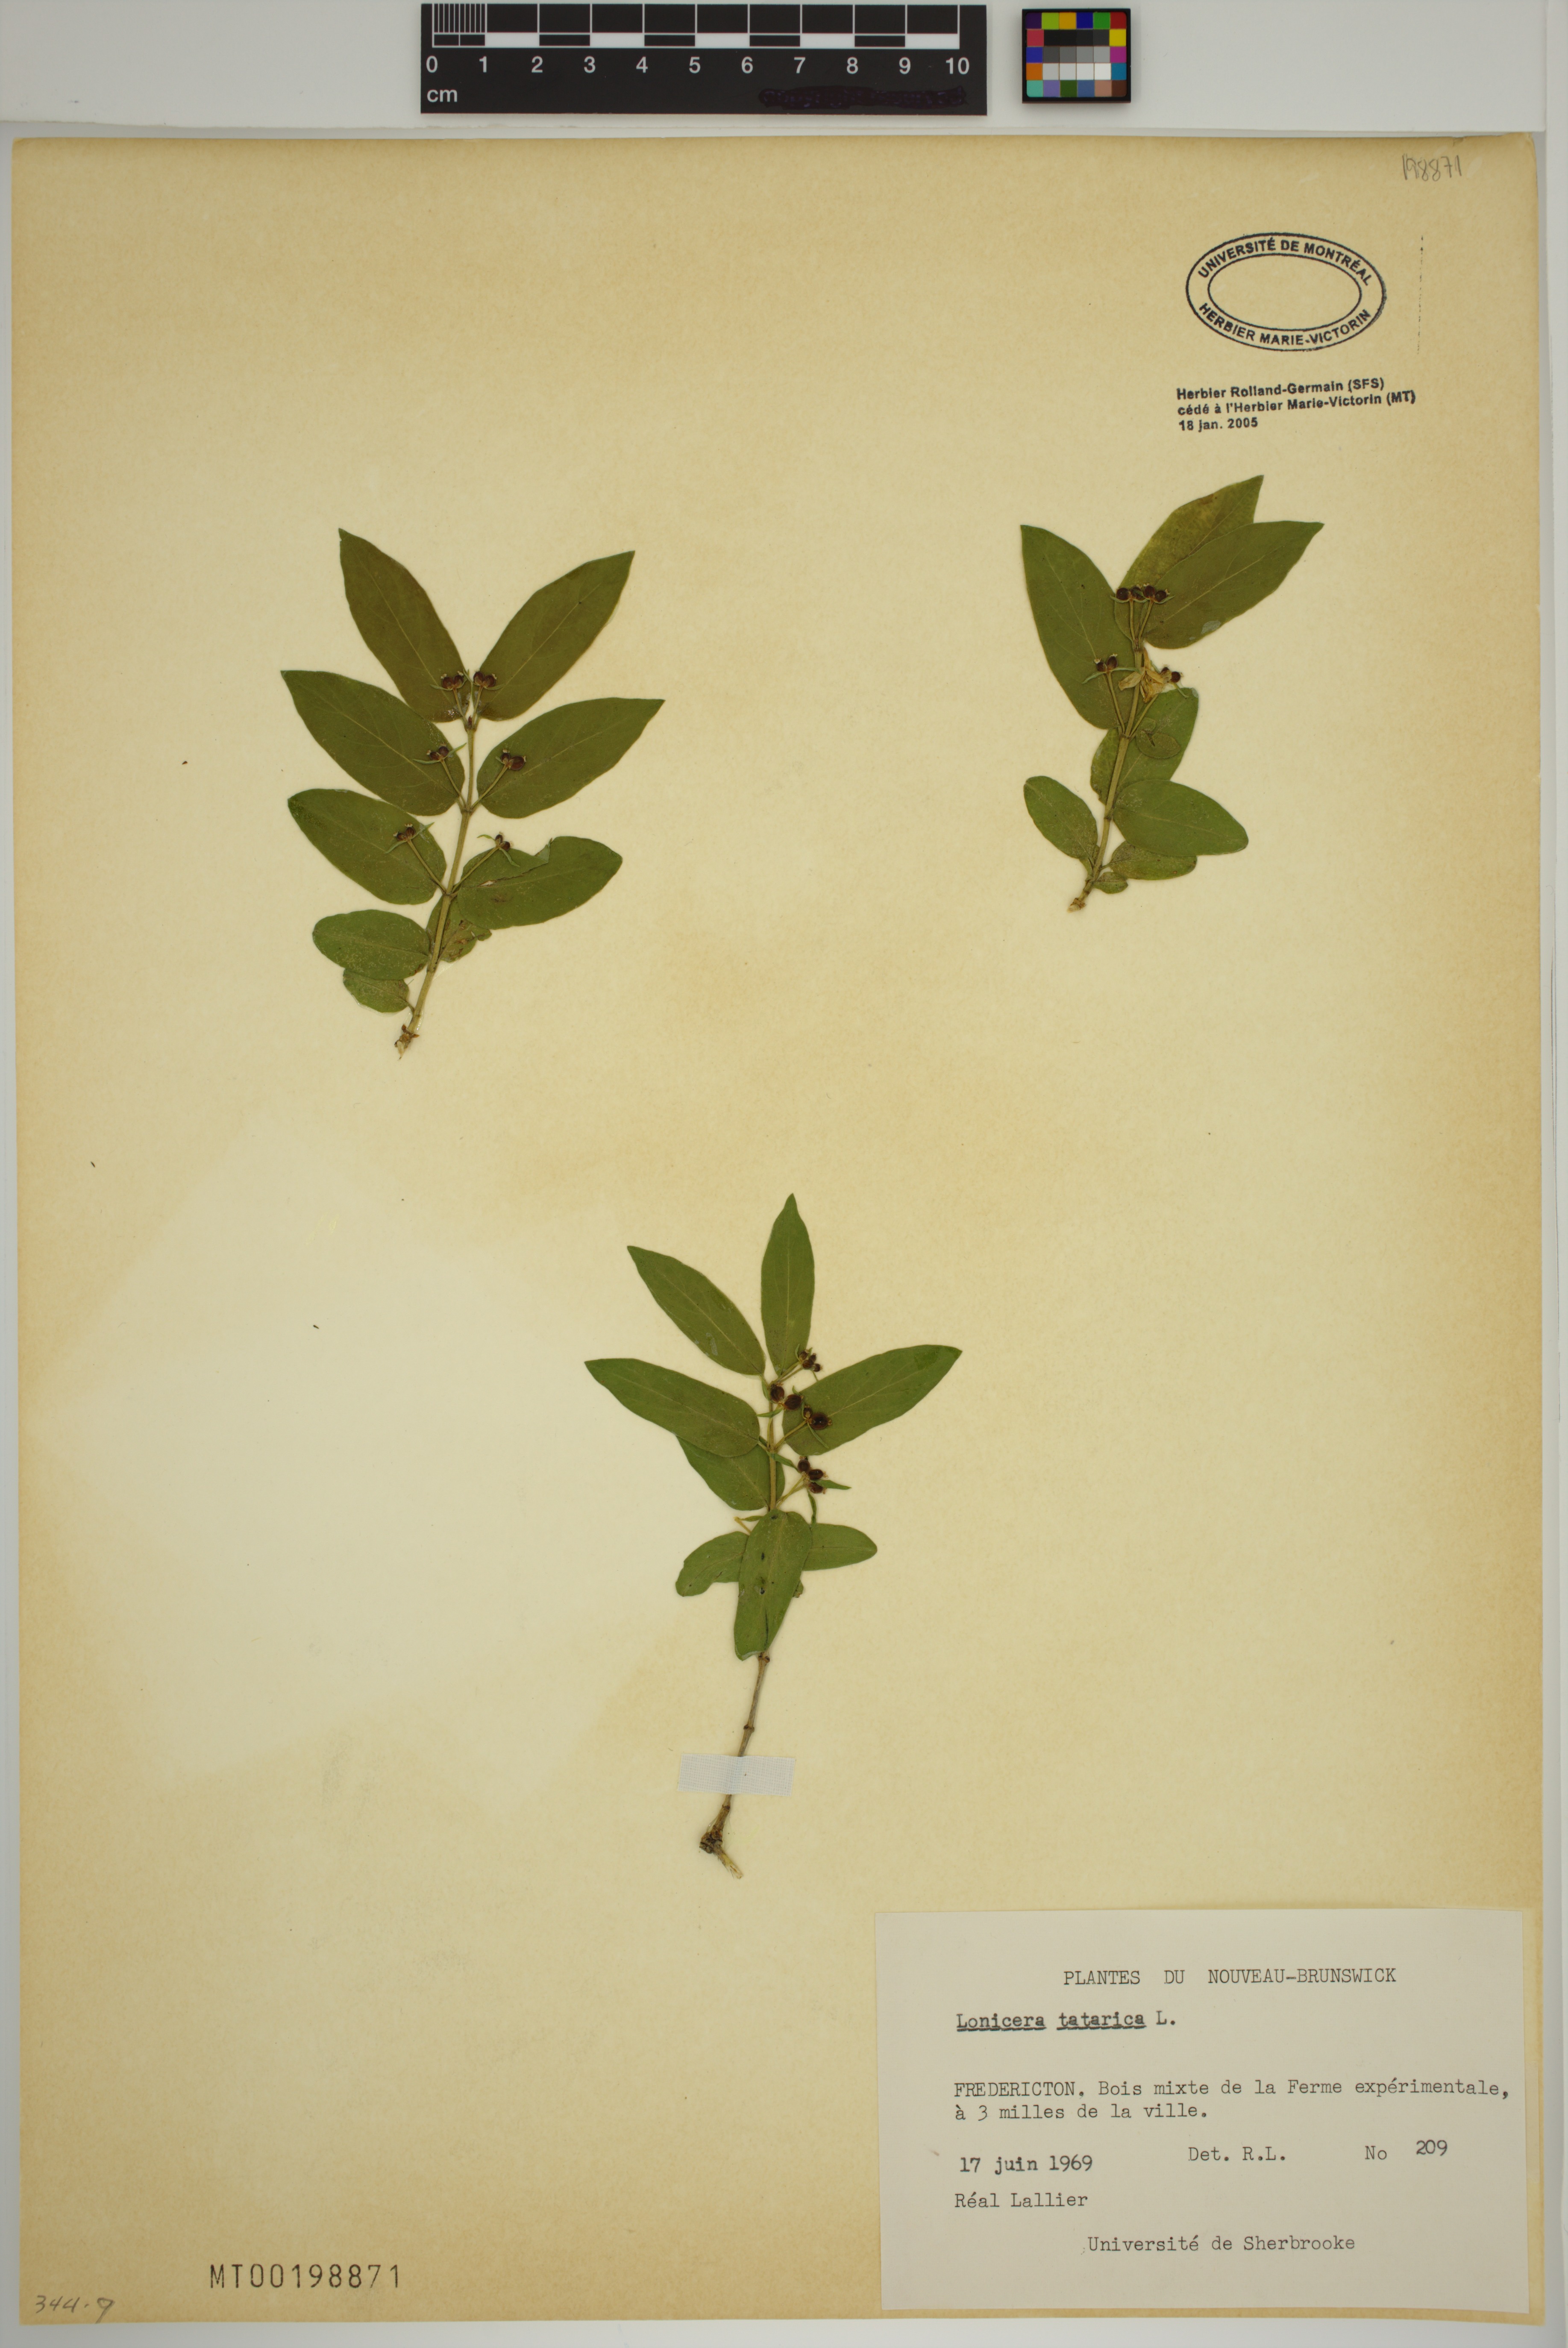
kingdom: Plantae
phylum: Tracheophyta
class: Magnoliopsida
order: Dipsacales
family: Caprifoliaceae
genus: Lonicera
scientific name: Lonicera tatarica
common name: Tatarian honeysuckle
